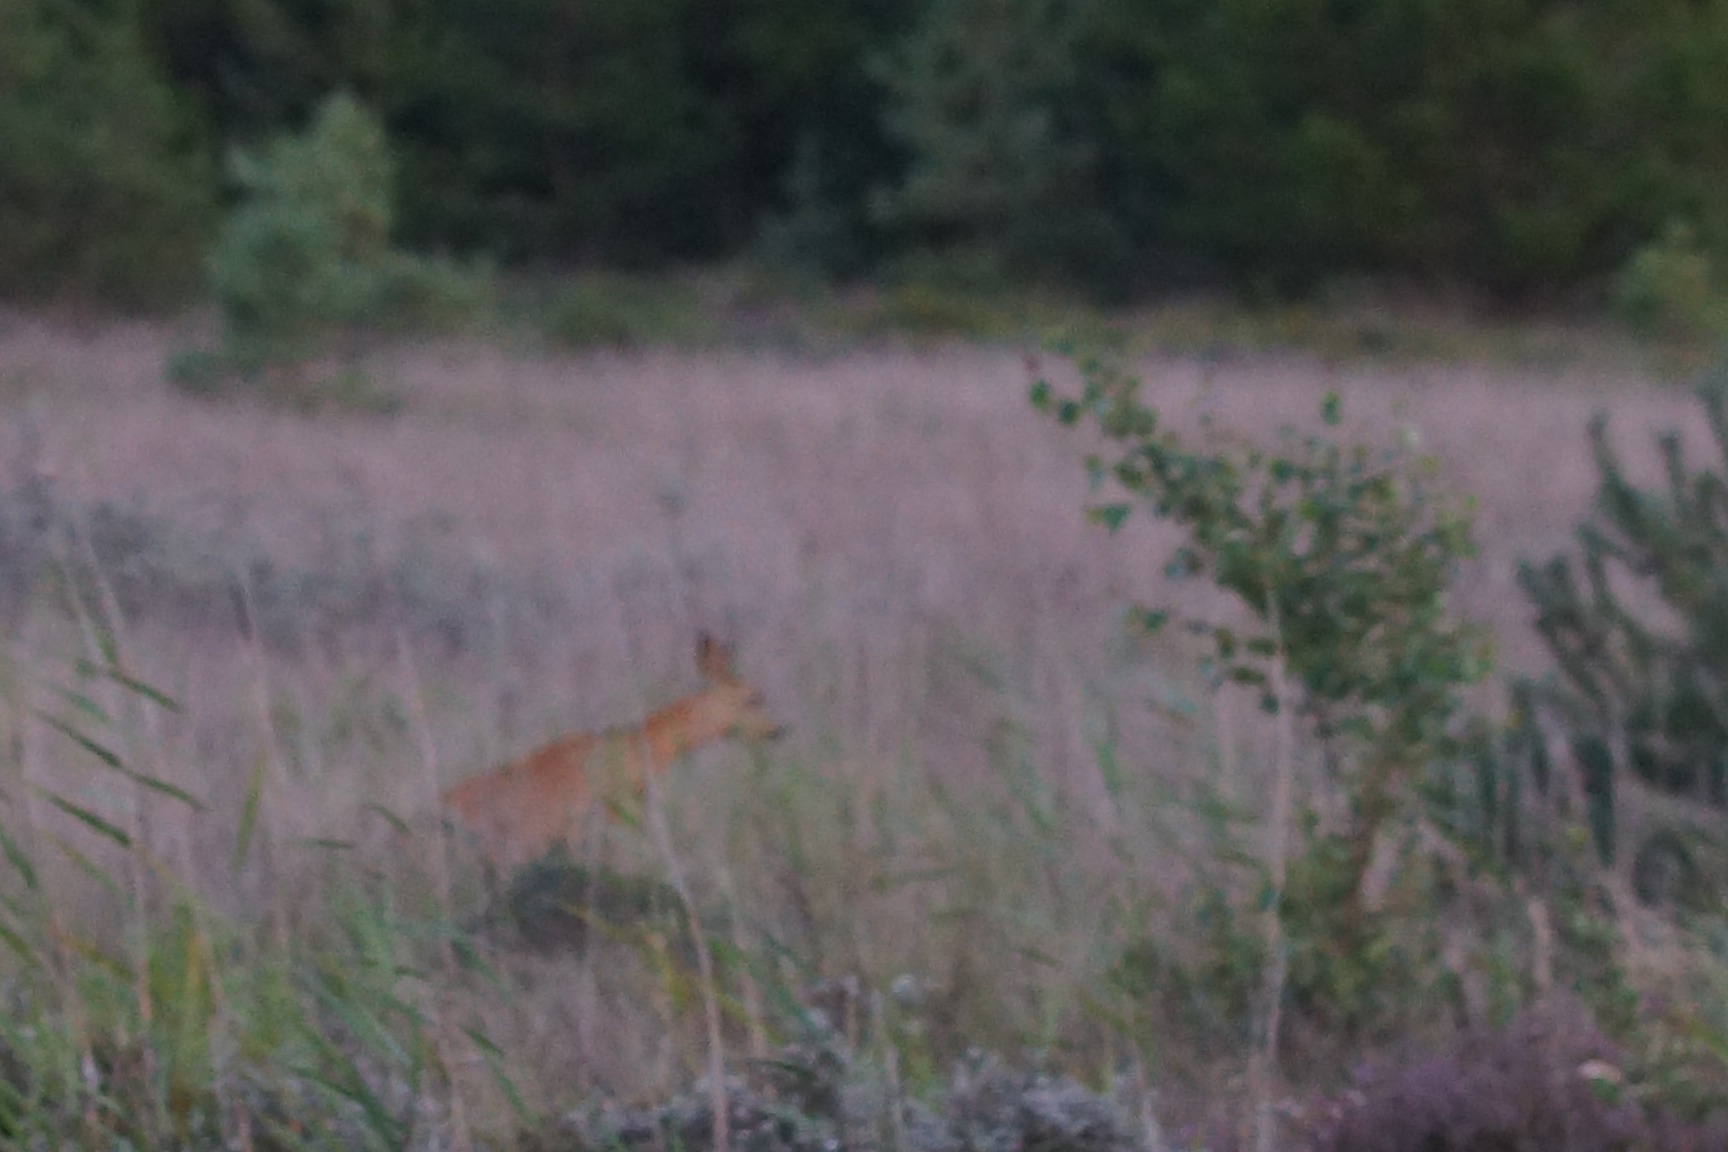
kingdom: Animalia
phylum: Chordata
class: Mammalia
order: Artiodactyla
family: Cervidae
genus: Capreolus
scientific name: Capreolus capreolus
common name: Rådyr
